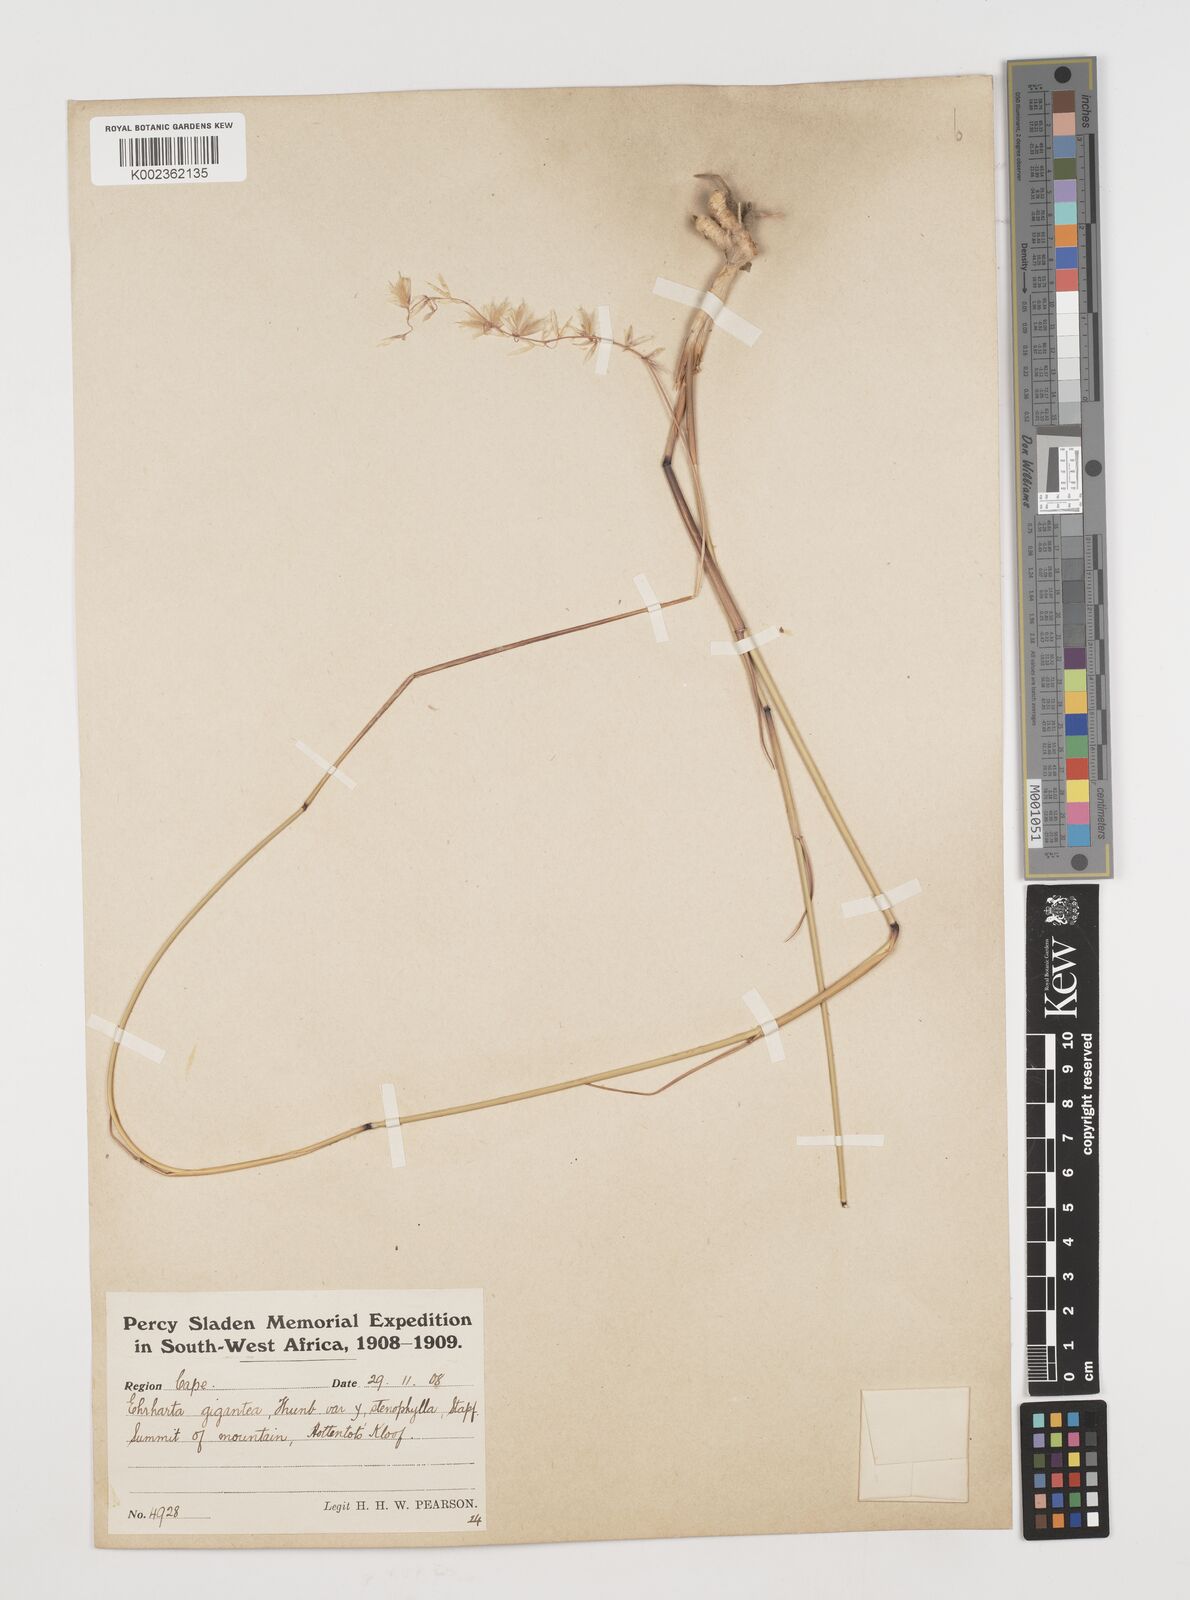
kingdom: Plantae
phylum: Tracheophyta
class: Liliopsida
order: Poales
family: Poaceae
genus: Ehrharta
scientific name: Ehrharta thunbergii
